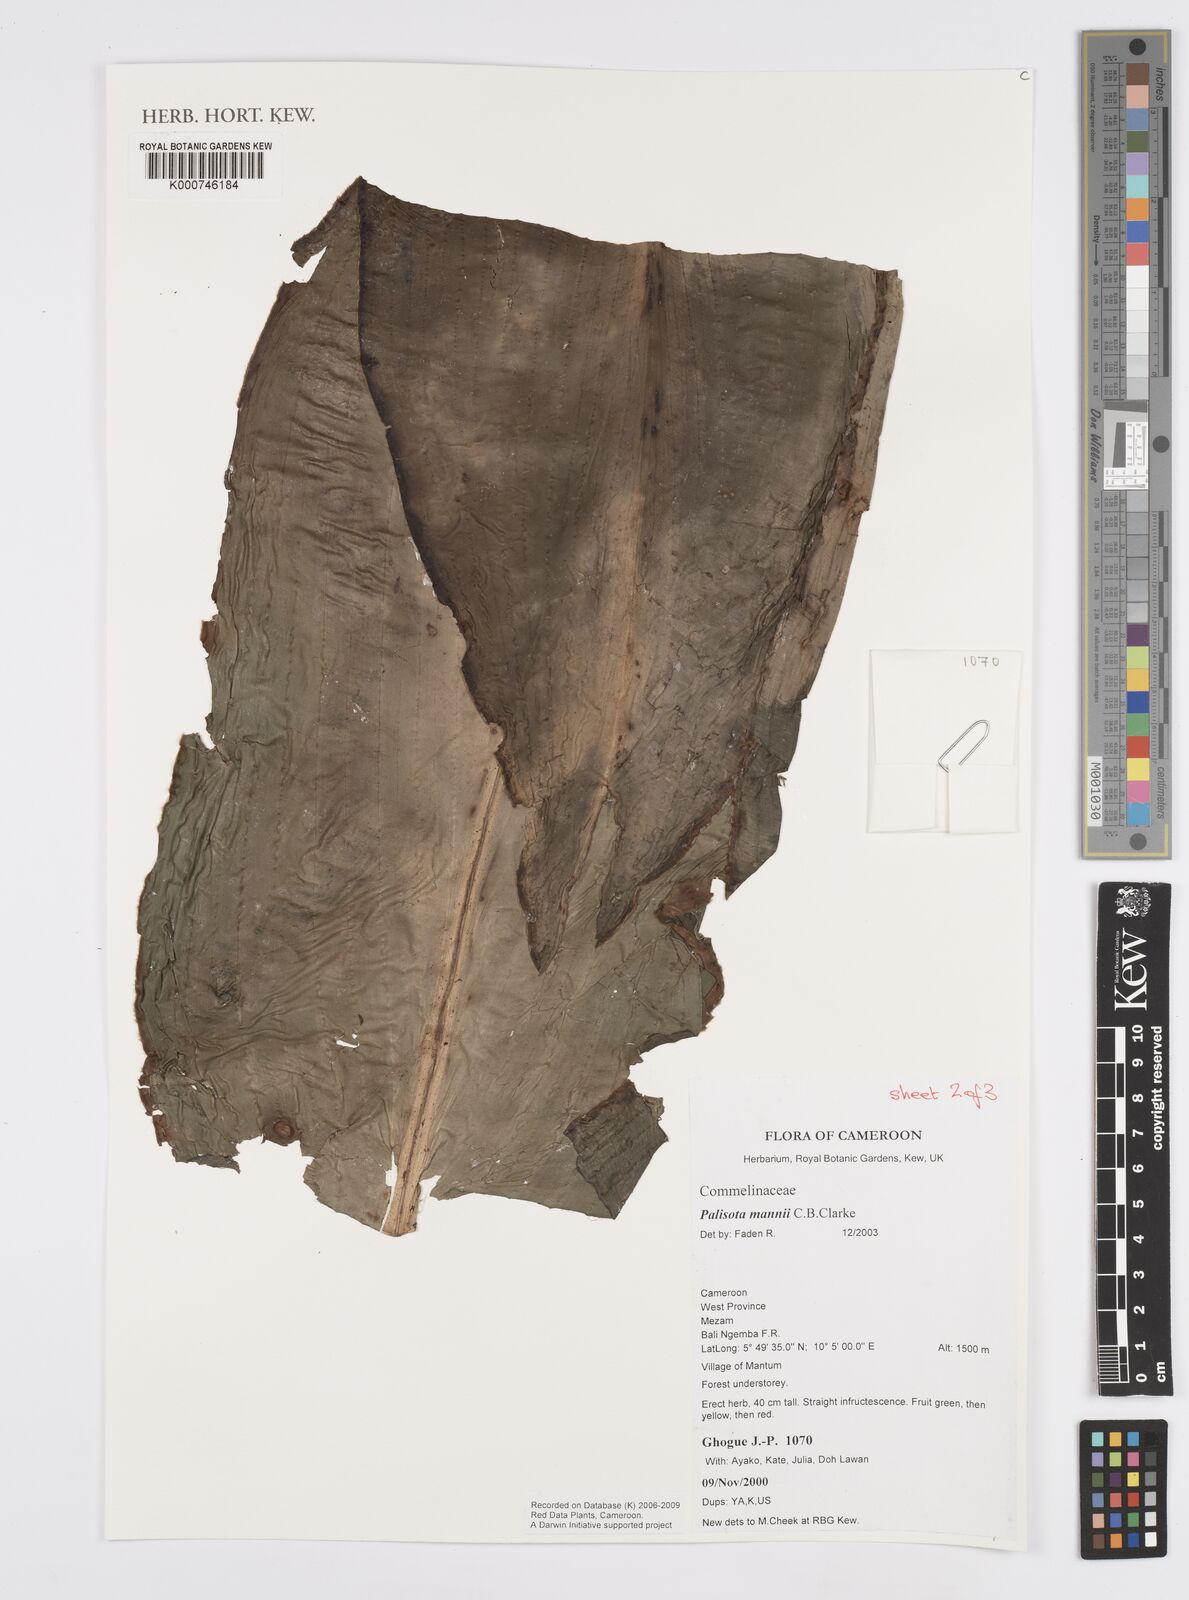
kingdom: Plantae
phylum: Tracheophyta
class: Liliopsida
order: Commelinales
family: Commelinaceae
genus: Palisota
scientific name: Palisota mannii
